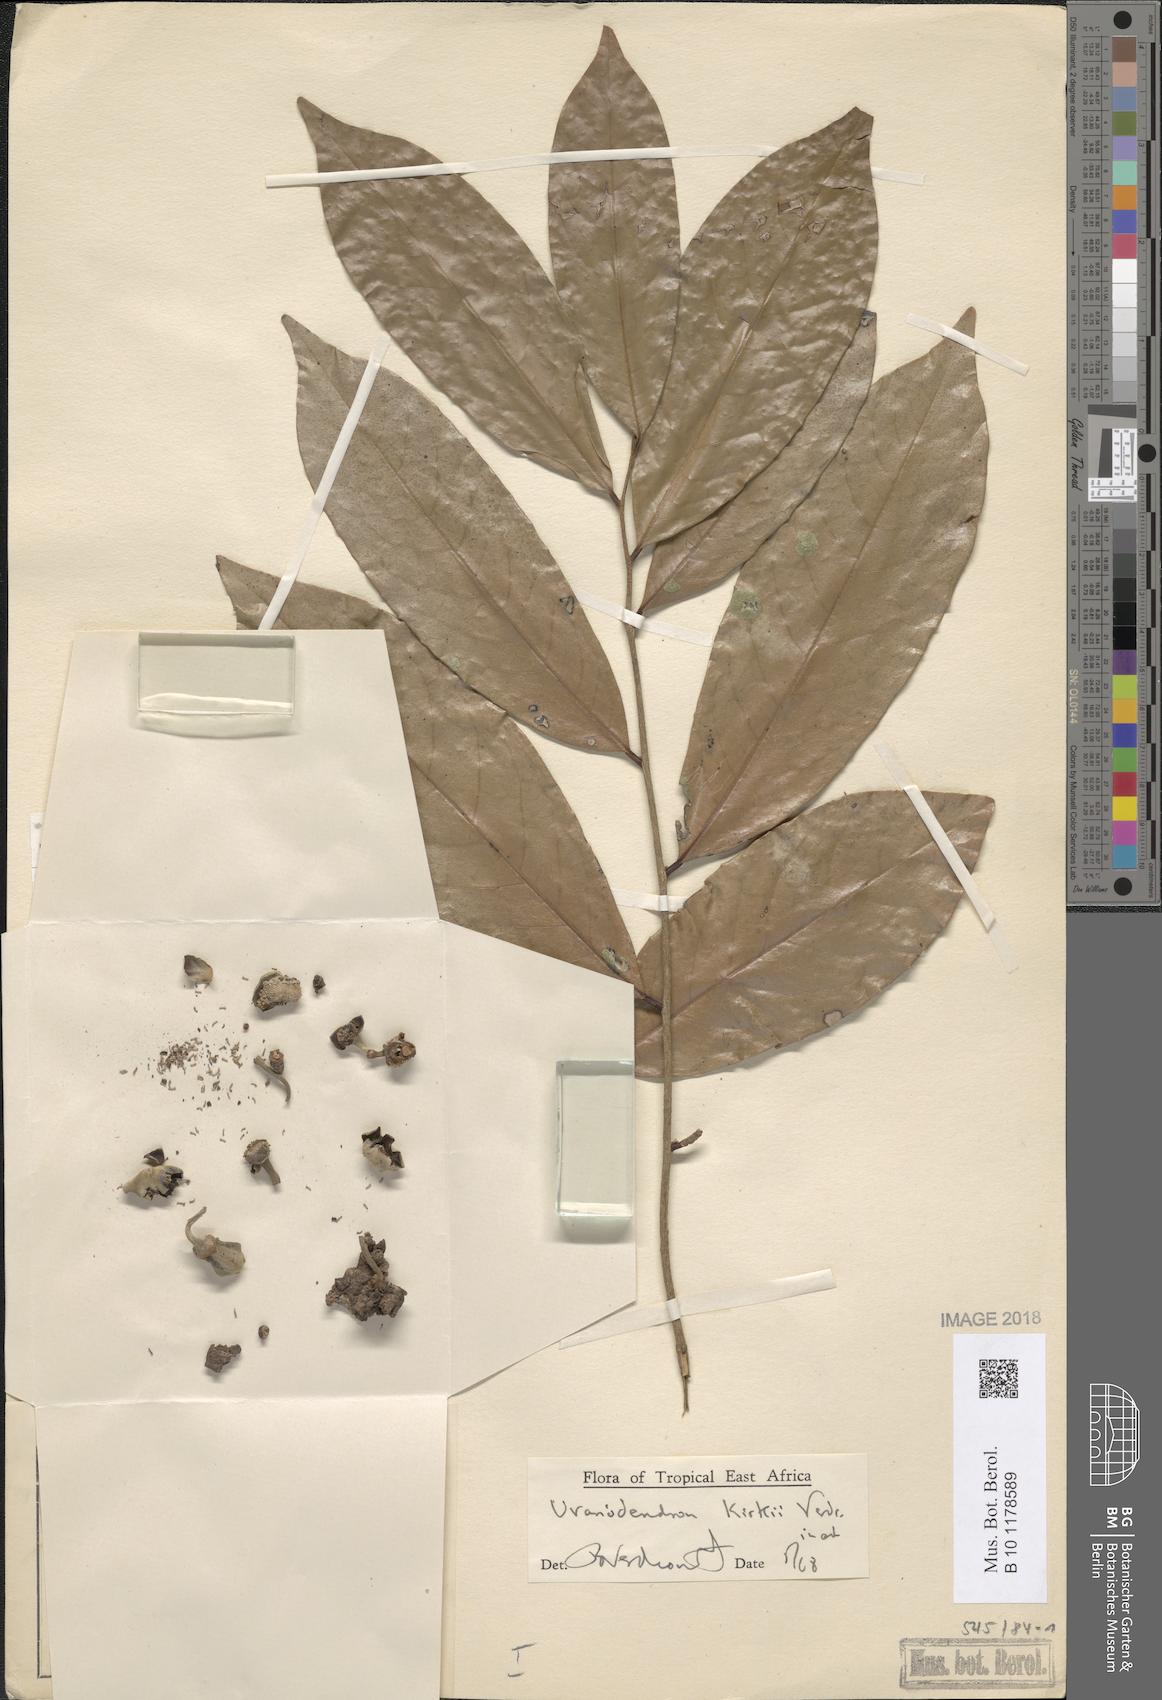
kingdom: Plantae
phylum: Tracheophyta
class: Magnoliopsida
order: Magnoliales
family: Annonaceae
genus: Uvariodendron
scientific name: Uvariodendron kirkii
